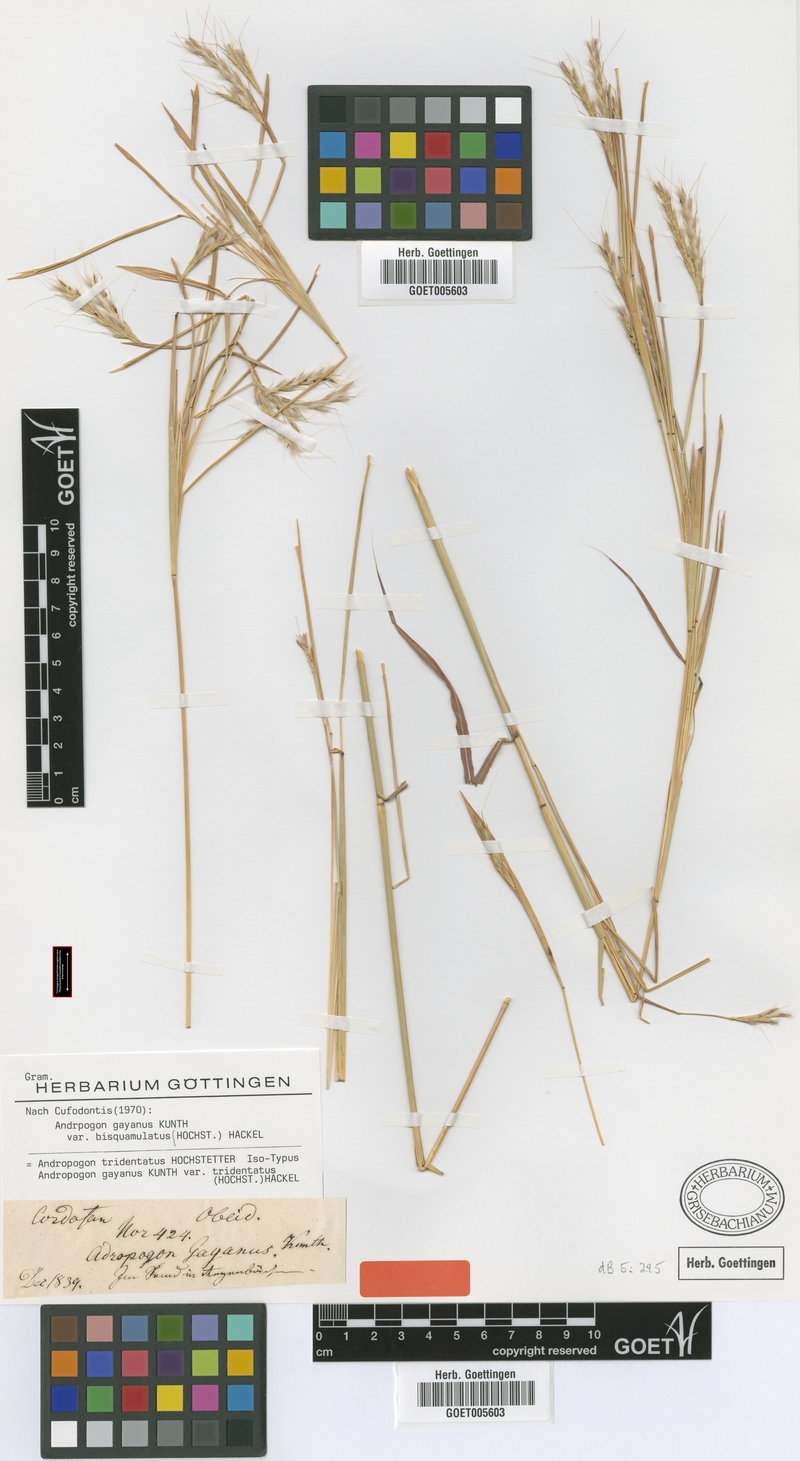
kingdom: Plantae
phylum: Tracheophyta
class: Liliopsida
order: Poales
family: Poaceae
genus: Andropogon
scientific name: Andropogon gayanus
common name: Tambuki grass
